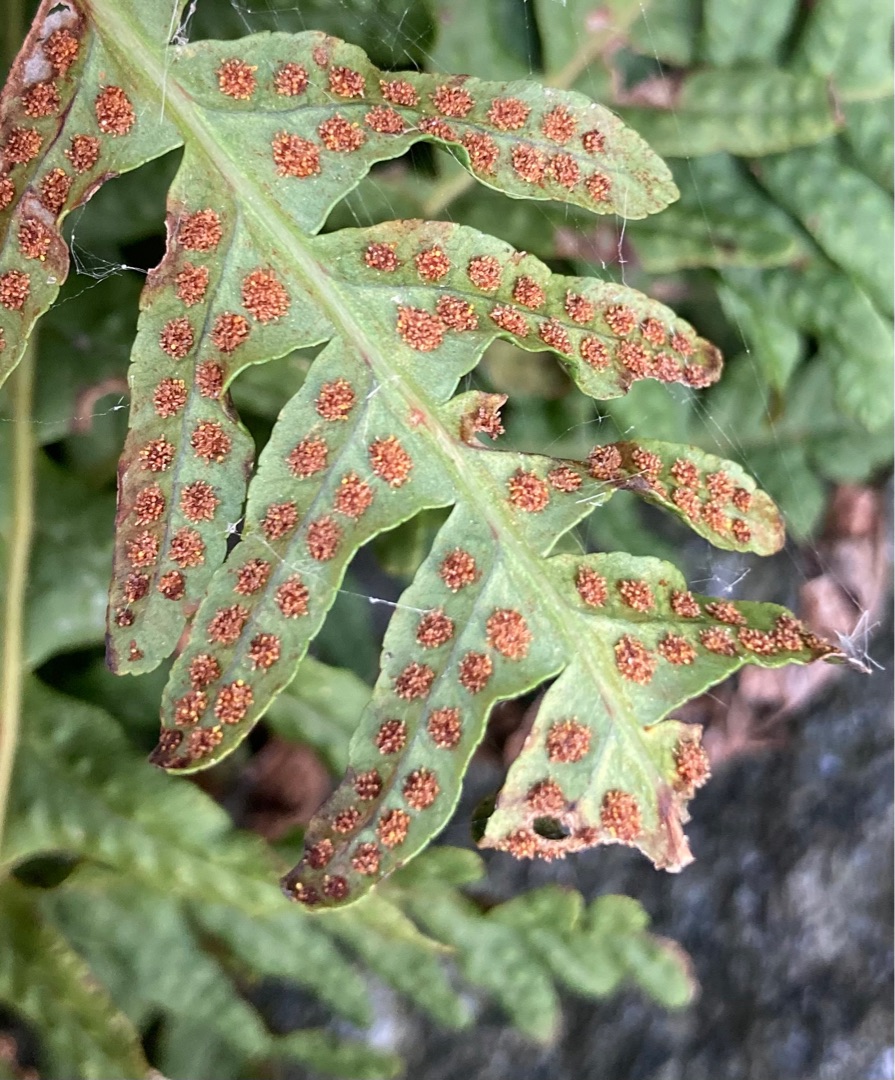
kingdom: Plantae
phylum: Tracheophyta
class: Polypodiopsida
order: Polypodiales
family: Polypodiaceae
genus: Polypodium
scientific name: Polypodium vulgare
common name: Almindelig engelsød
